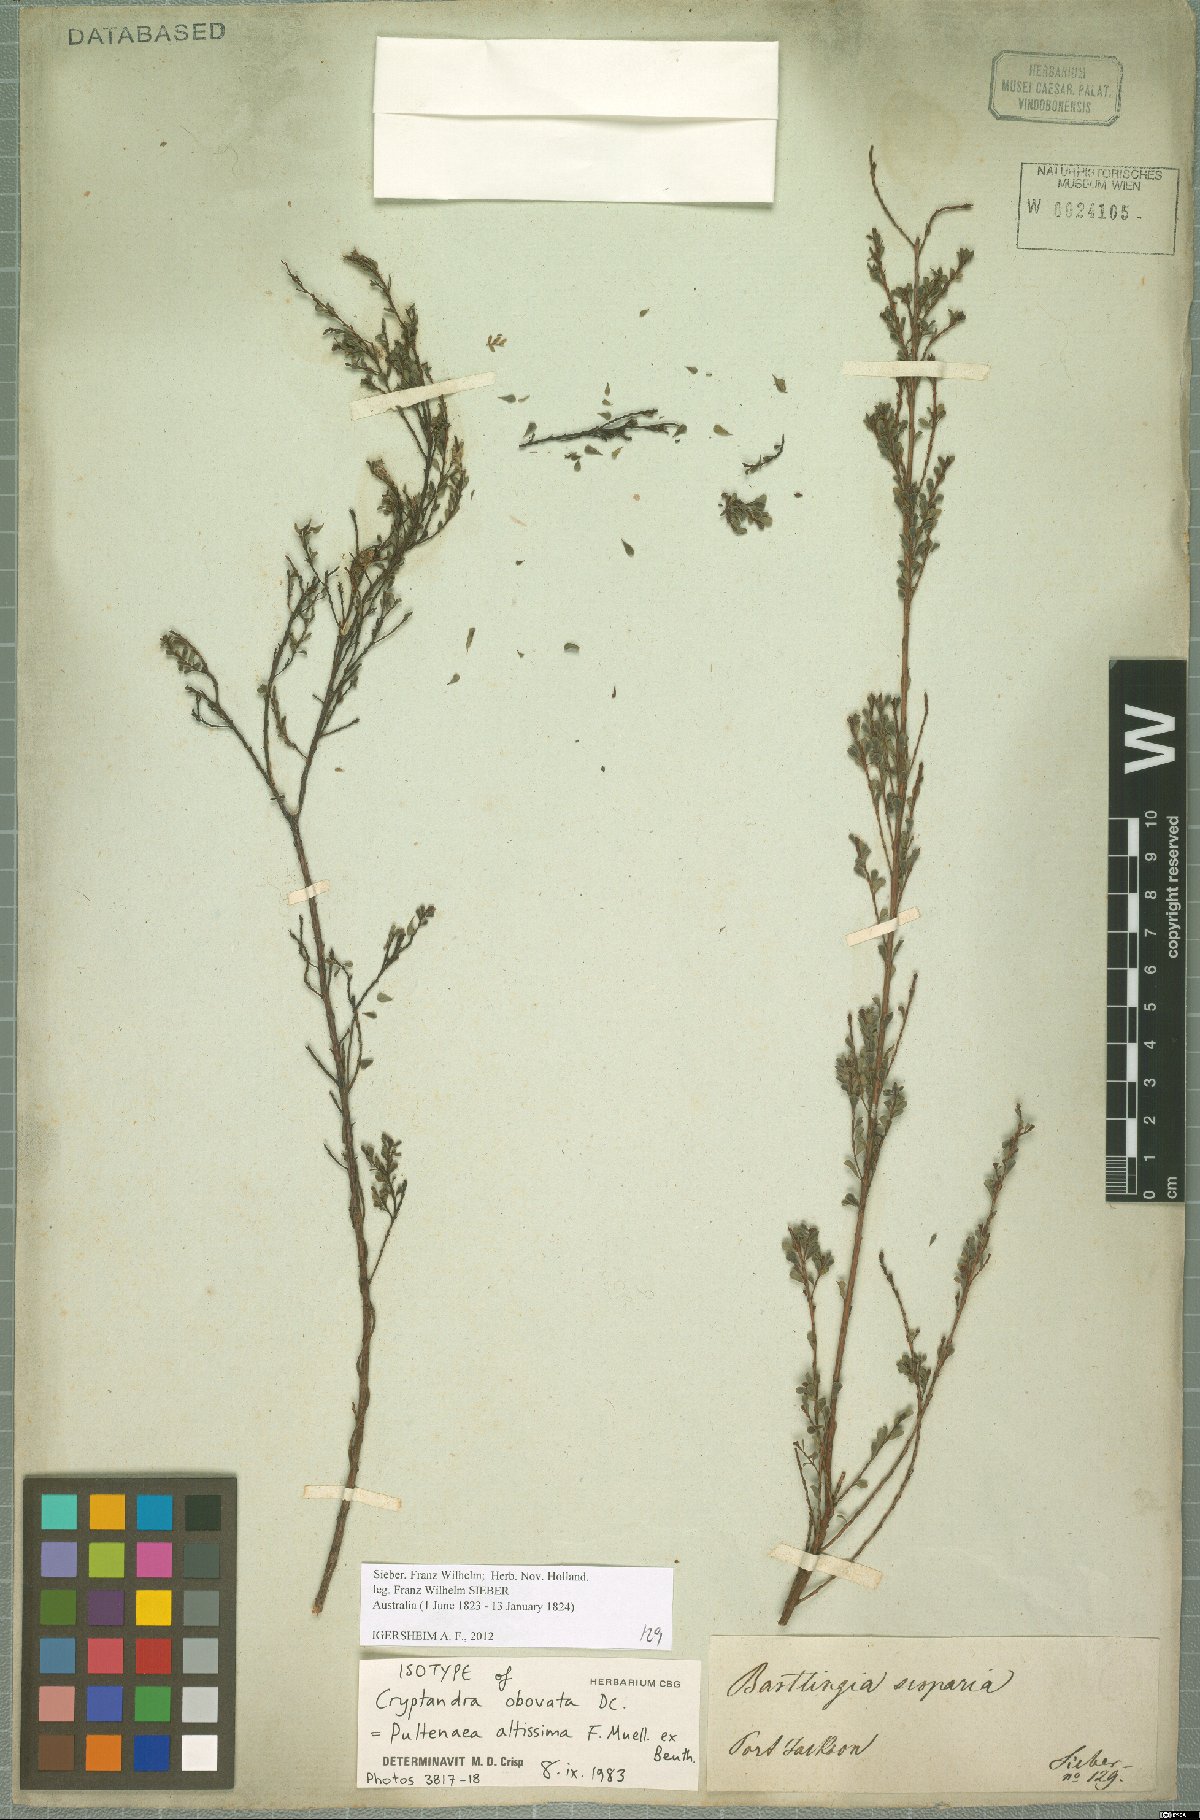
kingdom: Plantae
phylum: Tracheophyta
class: Magnoliopsida
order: Fabales
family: Fabaceae
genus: Pultenaea
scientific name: Pultenaea altissima
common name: Tall bush-pea
